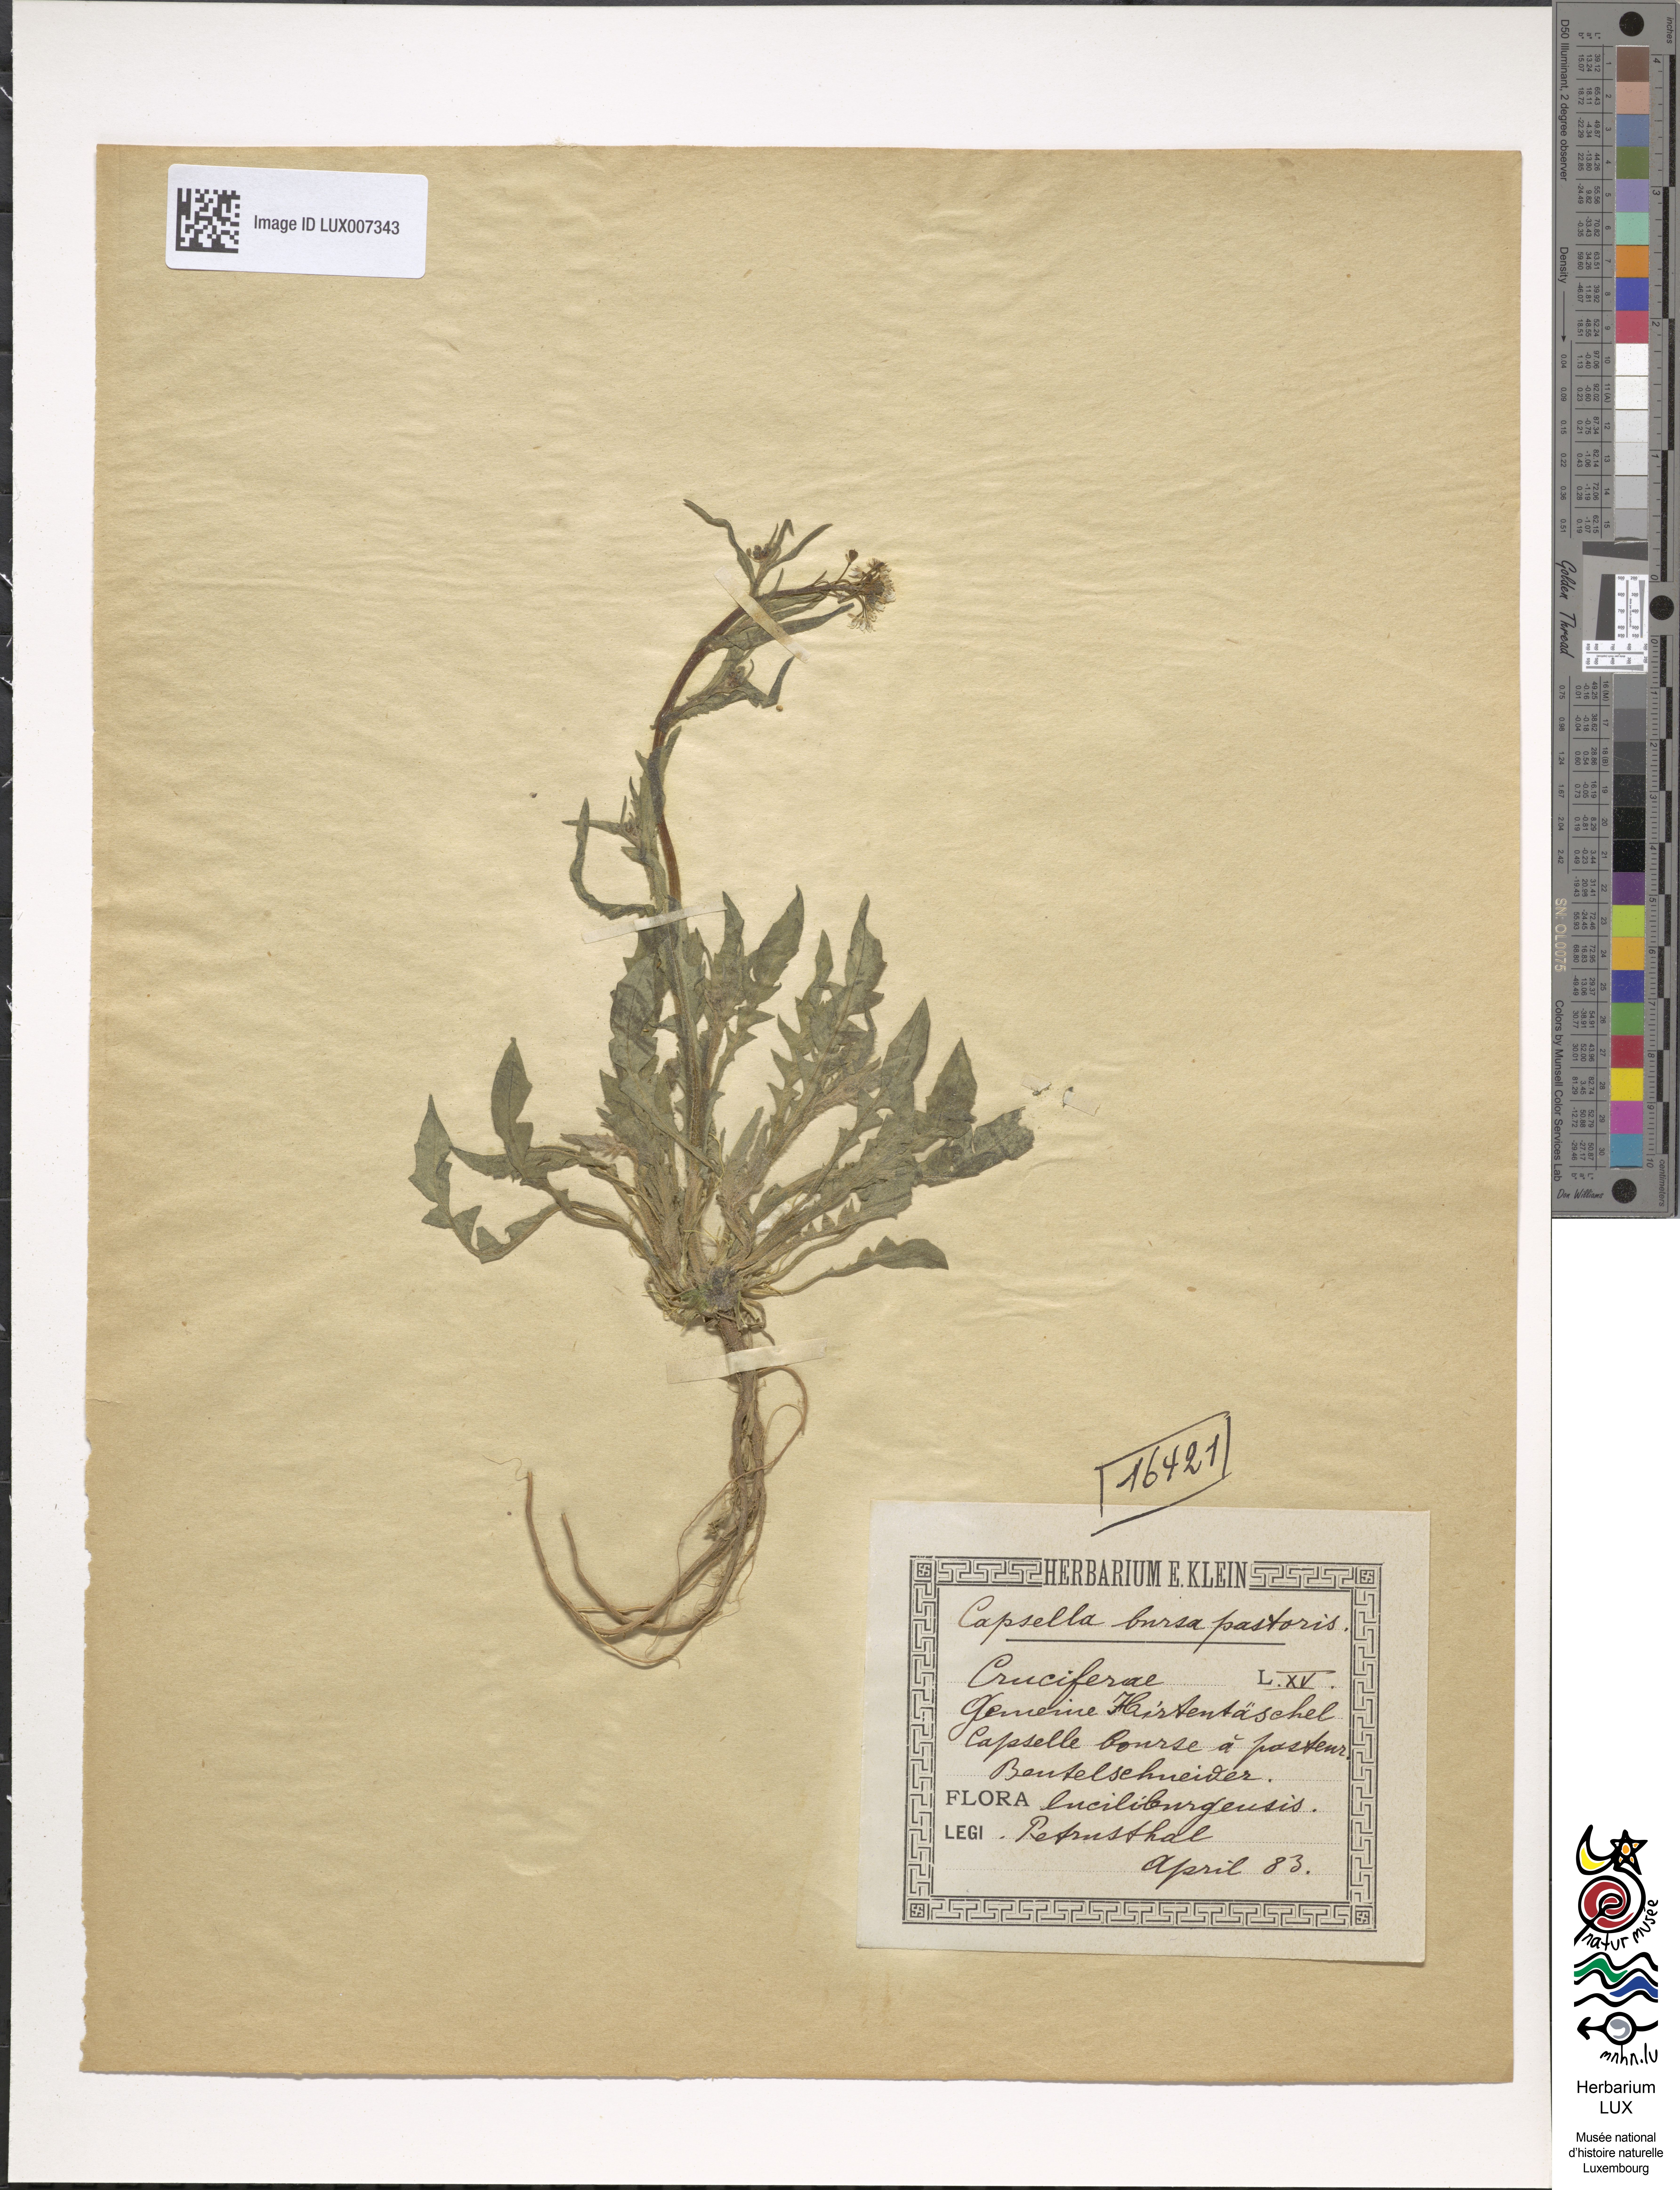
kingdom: Plantae
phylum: Tracheophyta
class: Magnoliopsida
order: Brassicales
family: Brassicaceae
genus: Capsella
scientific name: Capsella bursa-pastoris
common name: Shepherd's purse
